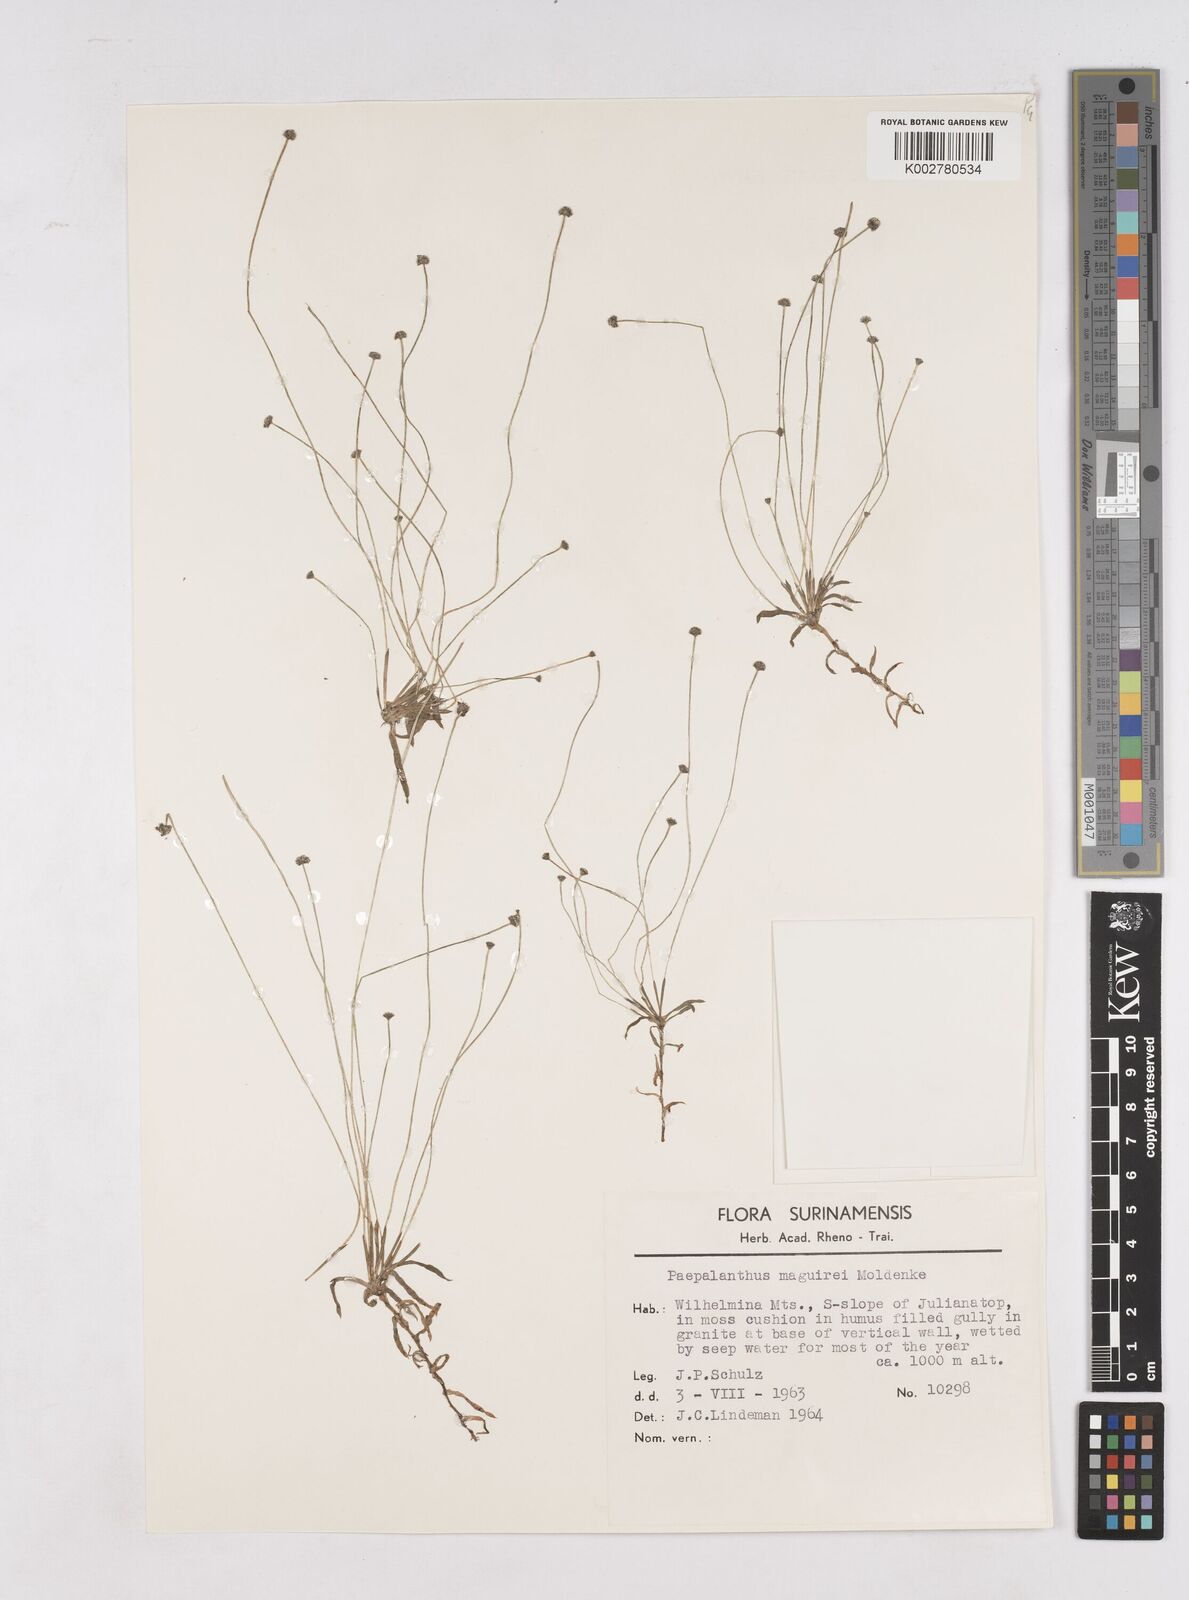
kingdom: Plantae
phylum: Tracheophyta
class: Liliopsida
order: Poales
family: Eriocaulaceae
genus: Paepalanthus
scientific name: Paepalanthus tortilis
